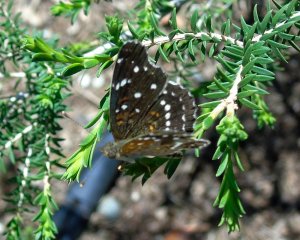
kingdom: Animalia
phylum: Arthropoda
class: Insecta
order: Lepidoptera
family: Nymphalidae
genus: Anthanassa
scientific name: Anthanassa texana
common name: Texan Crescent
